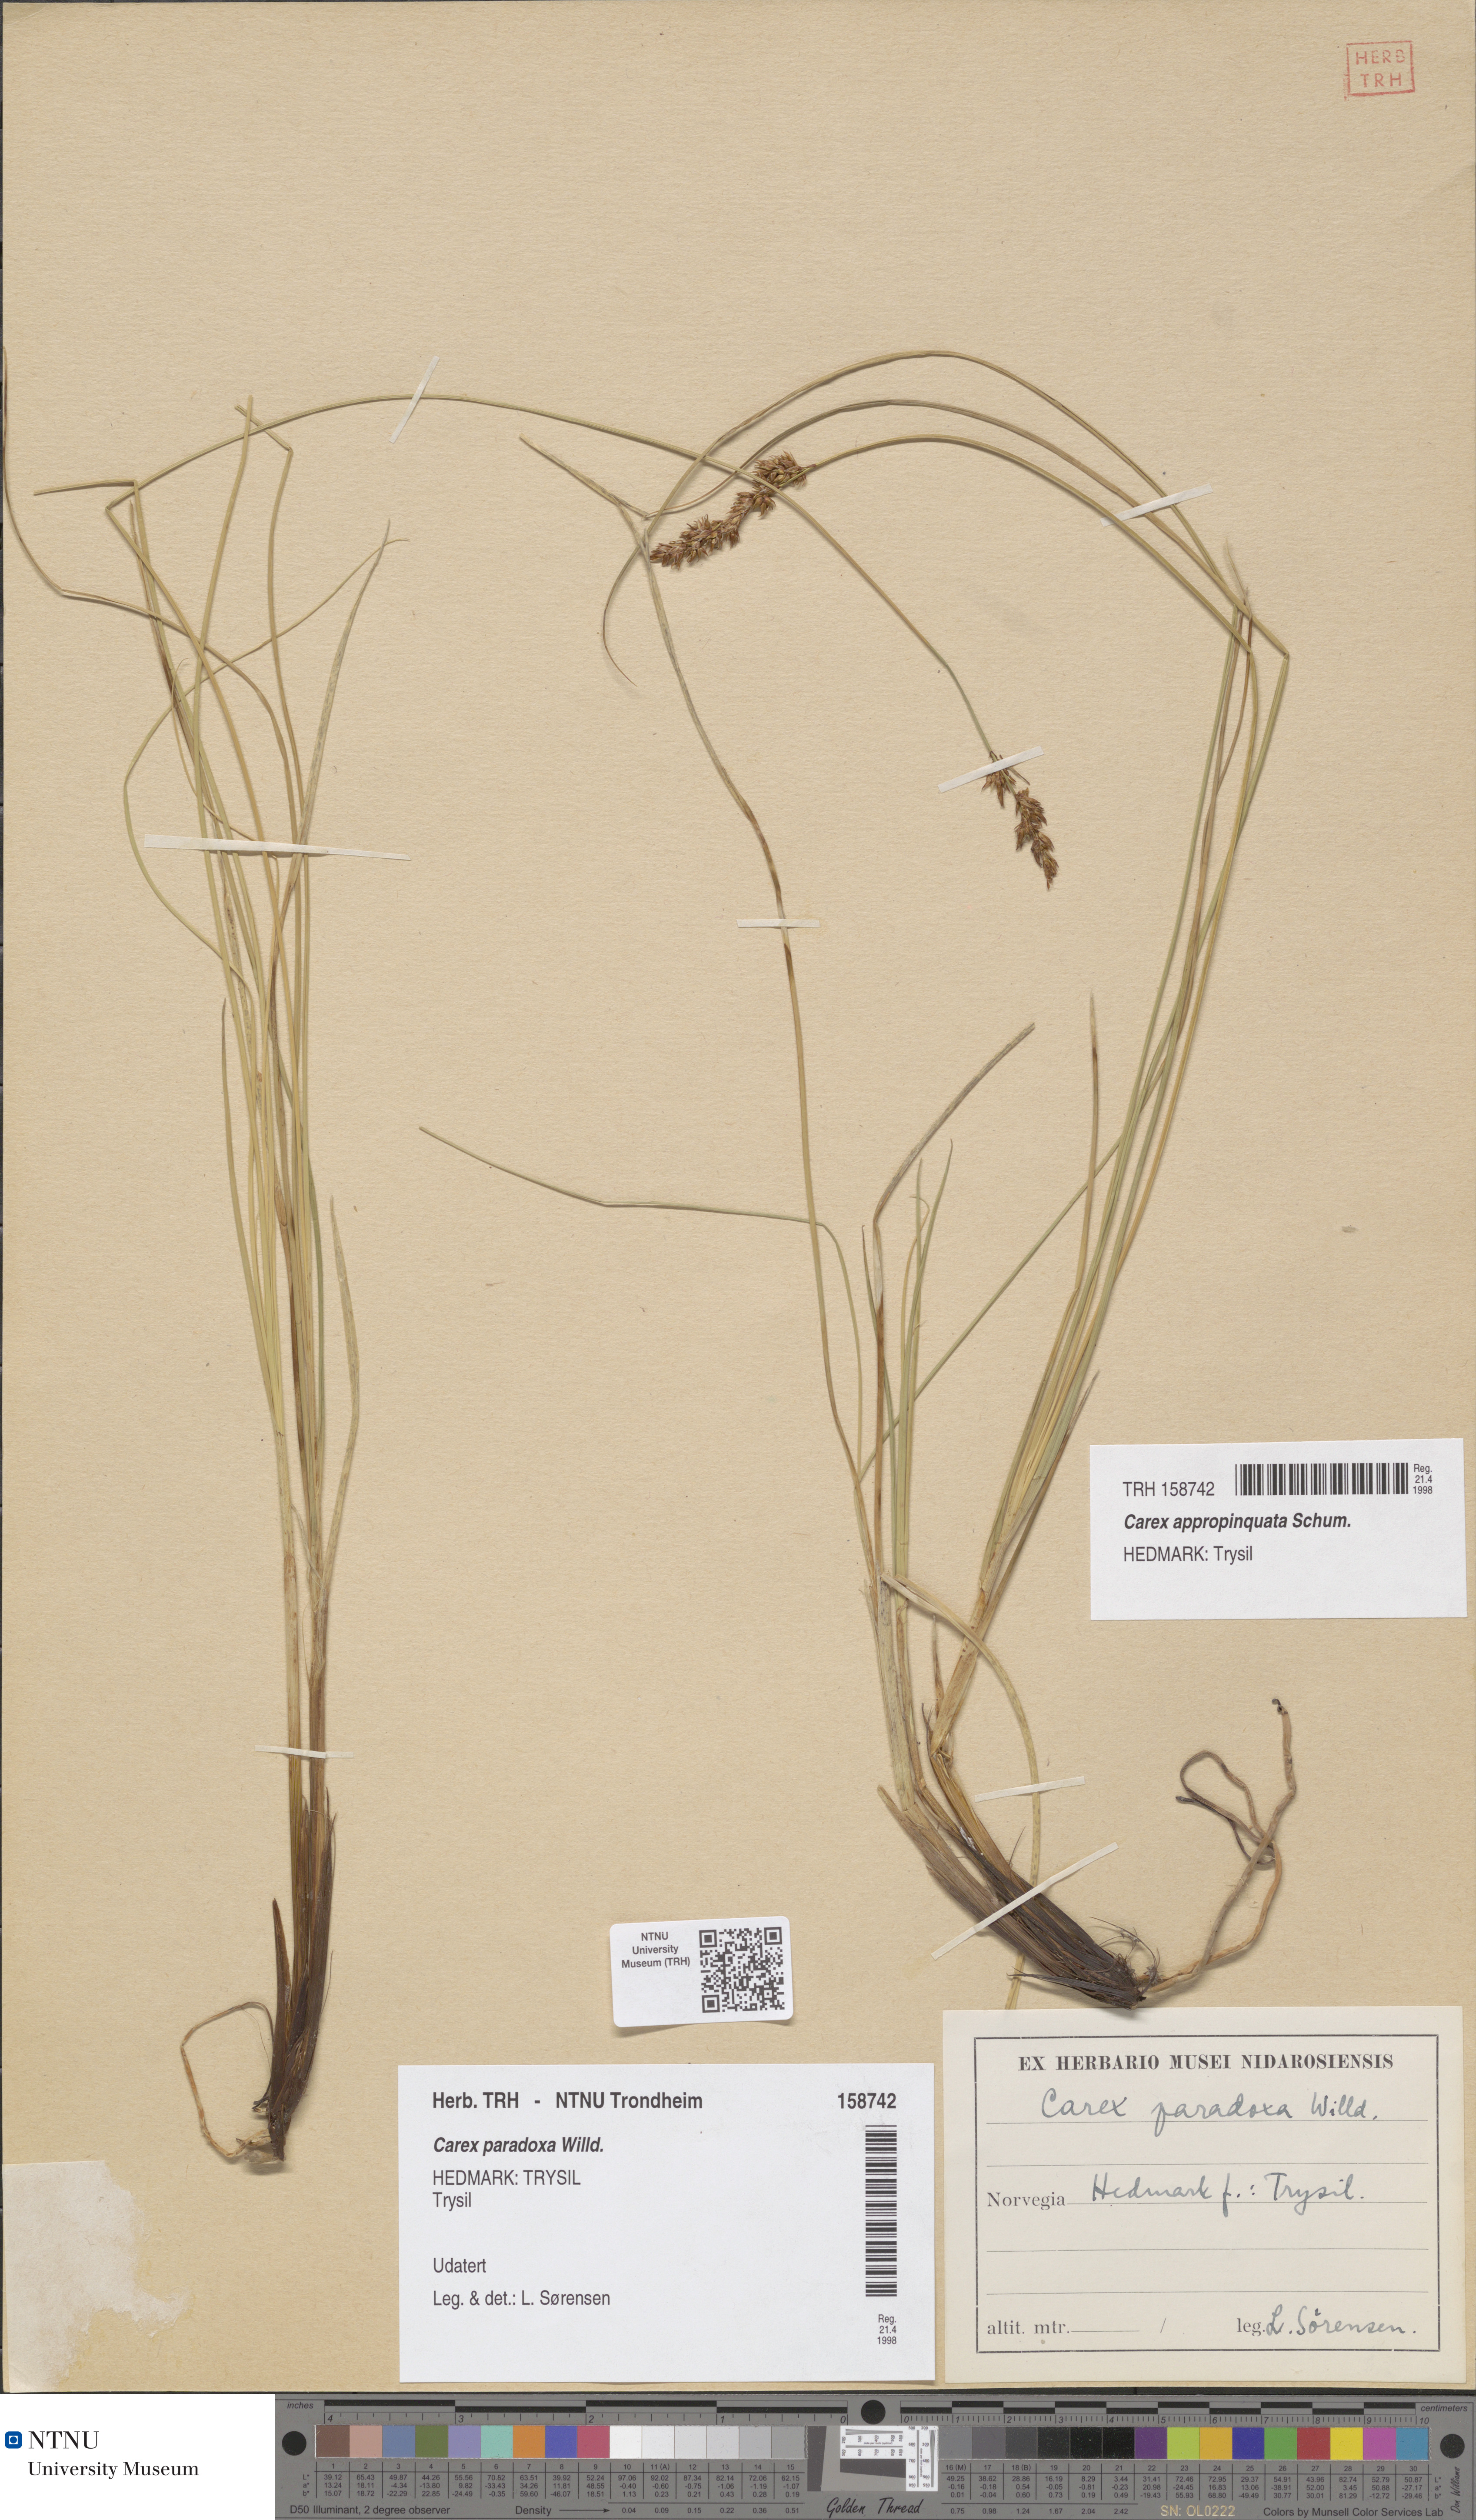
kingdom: Plantae
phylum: Tracheophyta
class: Liliopsida
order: Poales
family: Cyperaceae
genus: Carex
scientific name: Carex appropinquata
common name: Fibrous tussock-sedge
